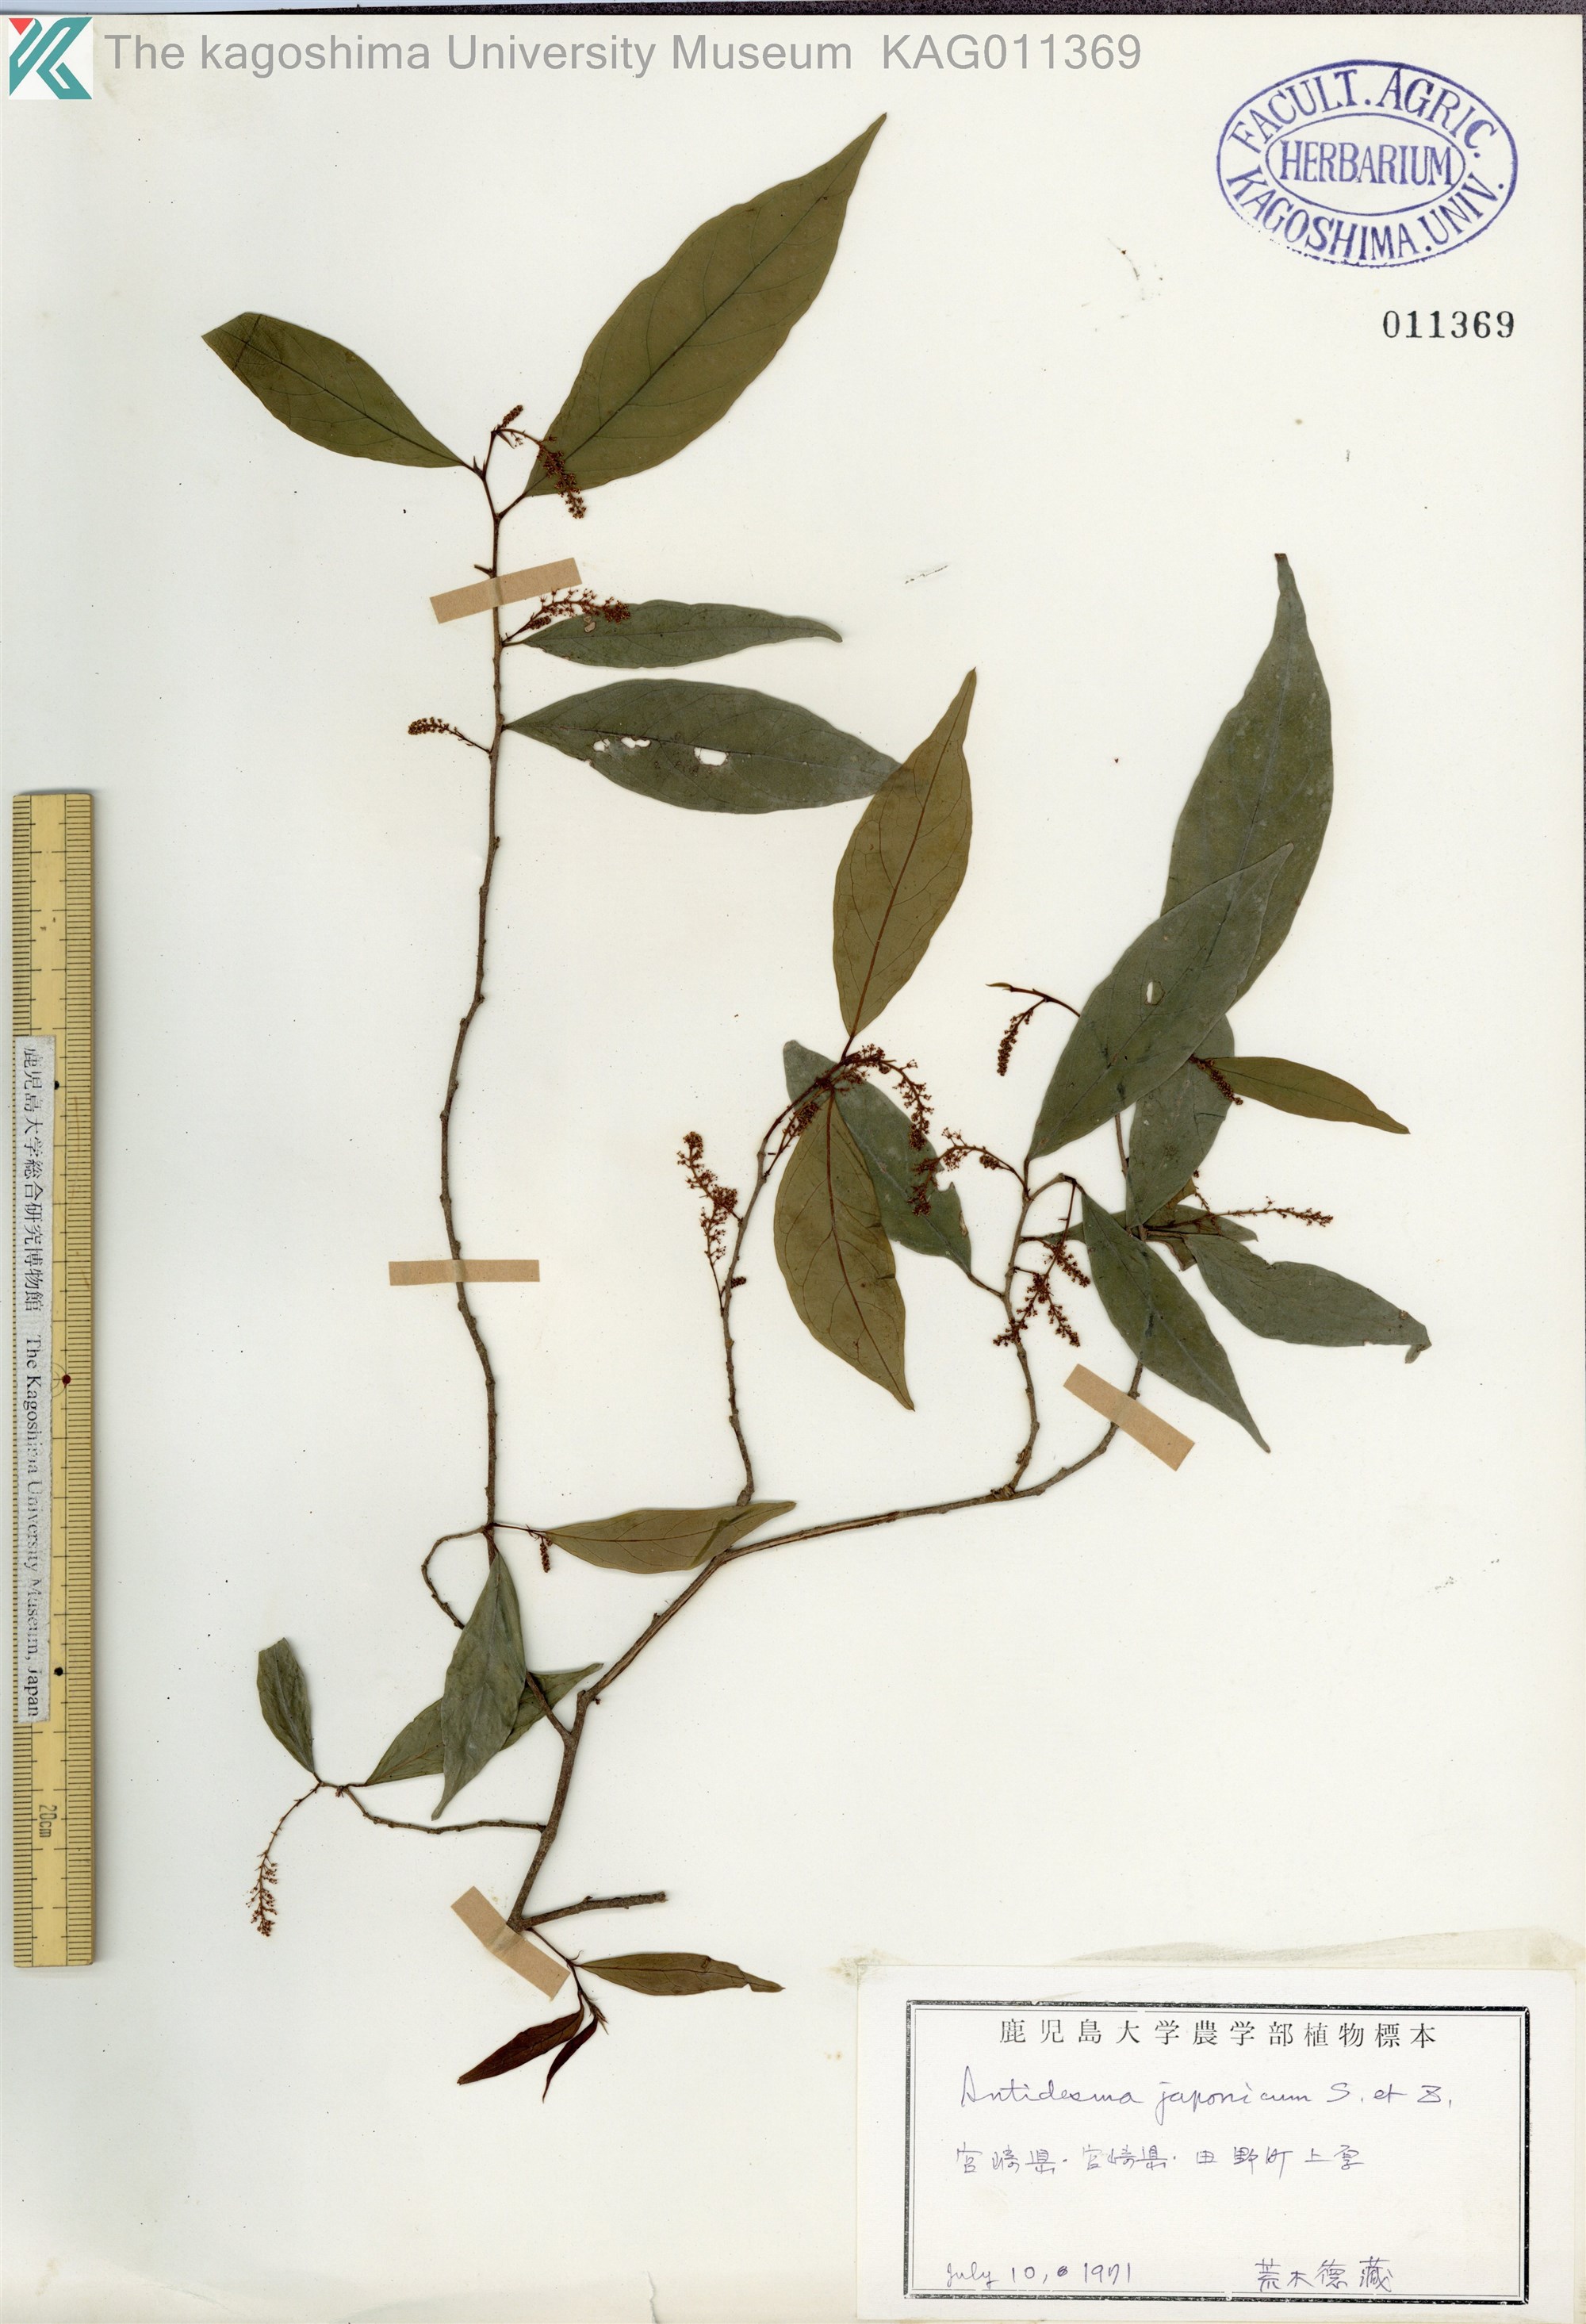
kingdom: Plantae
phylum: Tracheophyta
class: Magnoliopsida
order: Malpighiales
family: Phyllanthaceae
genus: Antidesma
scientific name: Antidesma japonicum
